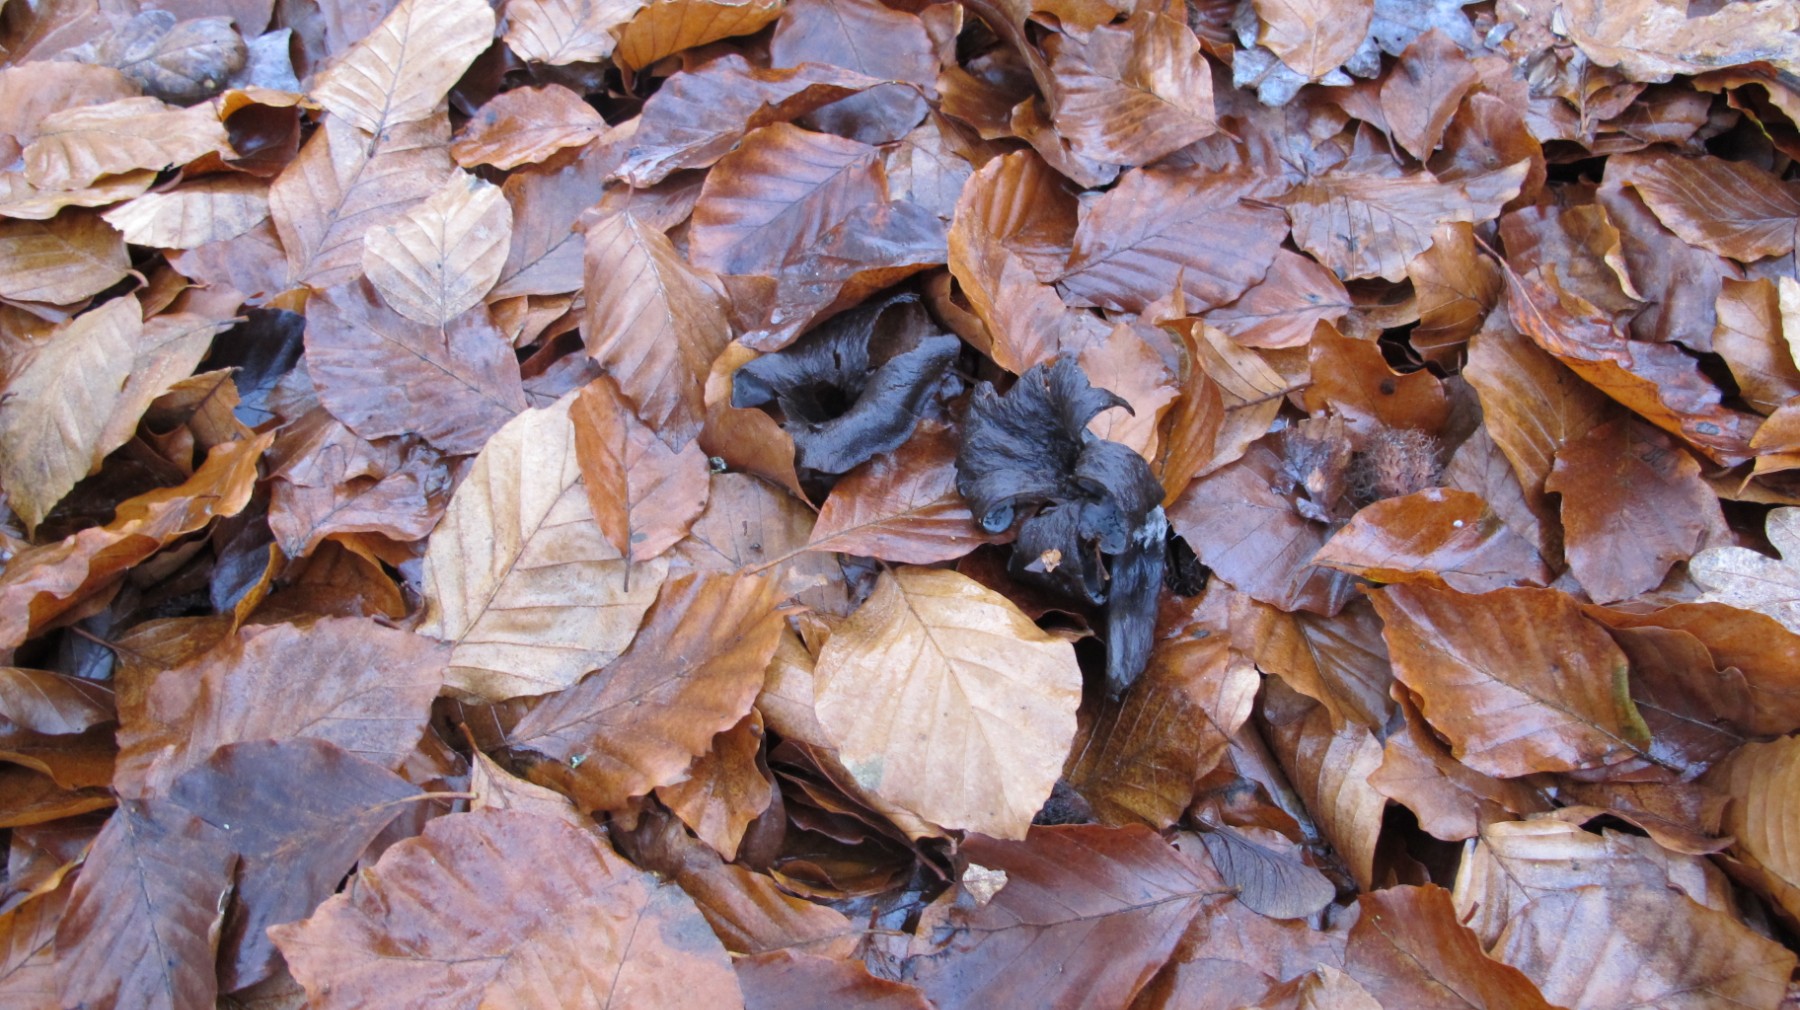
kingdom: Fungi
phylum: Basidiomycota
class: Agaricomycetes
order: Cantharellales
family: Hydnaceae
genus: Craterellus
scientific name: Craterellus cornucopioides
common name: trompetsvamp
